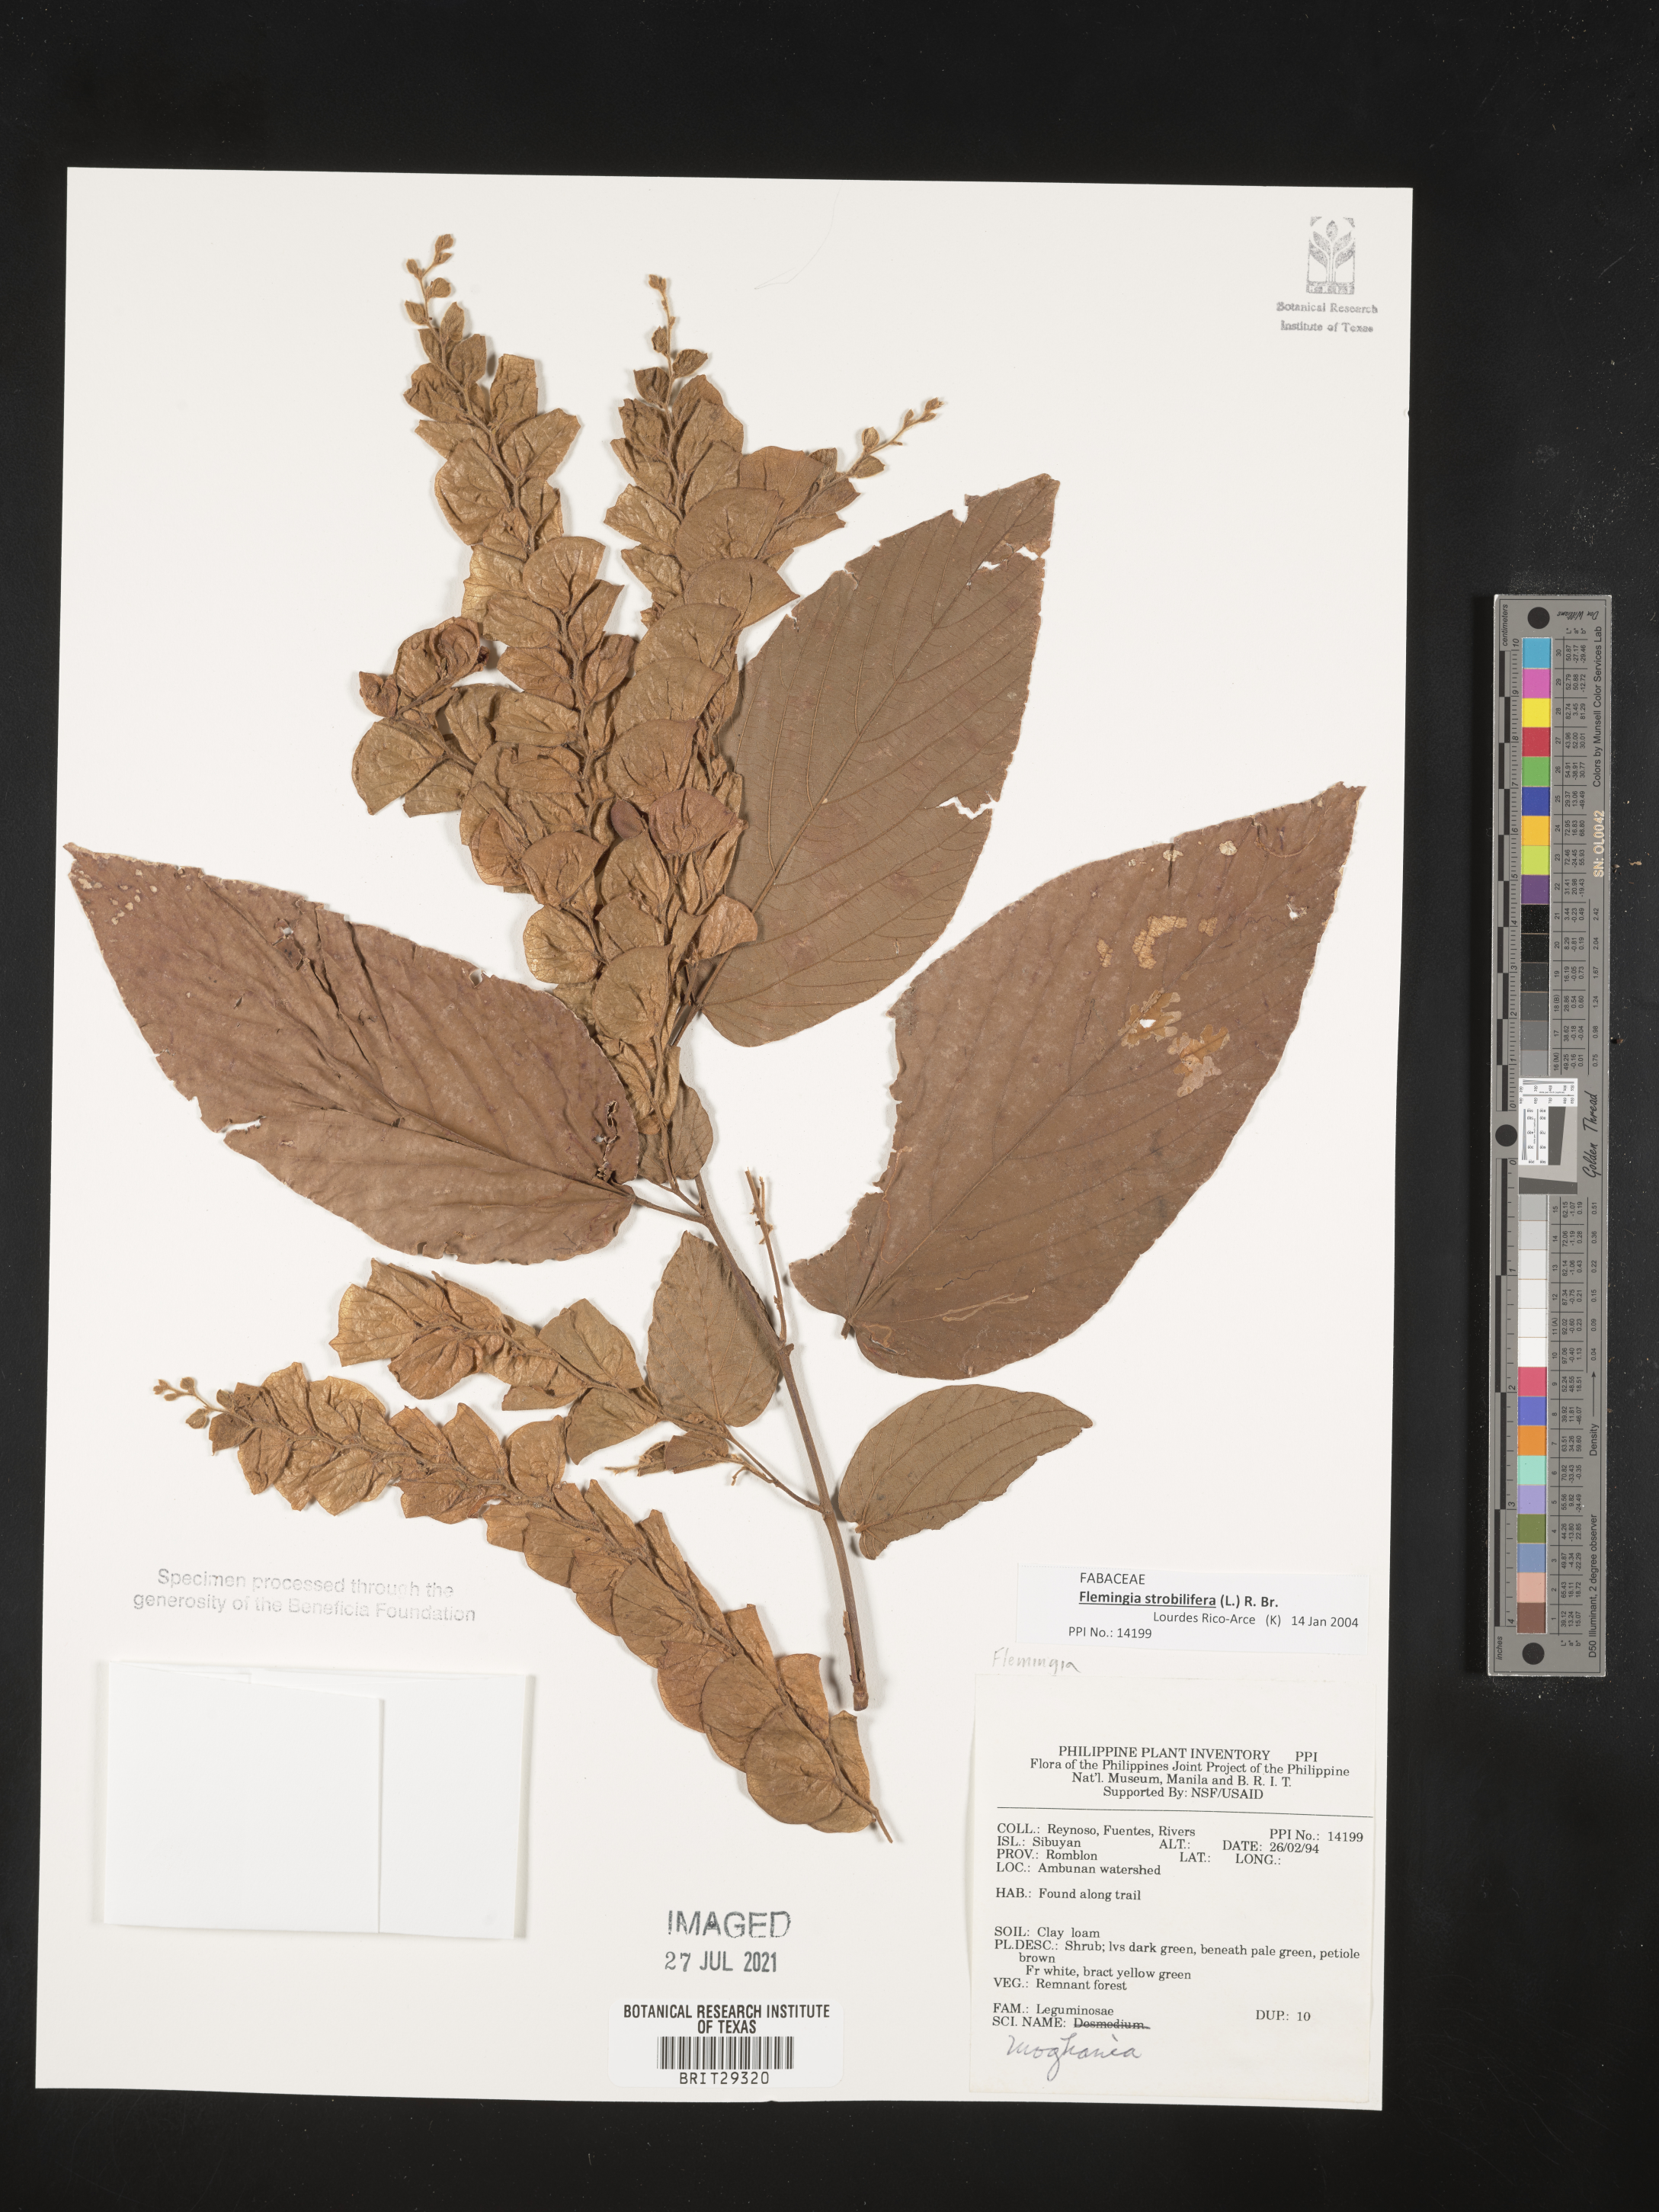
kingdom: Plantae
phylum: Tracheophyta
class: Magnoliopsida
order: Fabales
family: Fabaceae
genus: Flemingia
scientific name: Flemingia strobilifera
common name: Wild hops
